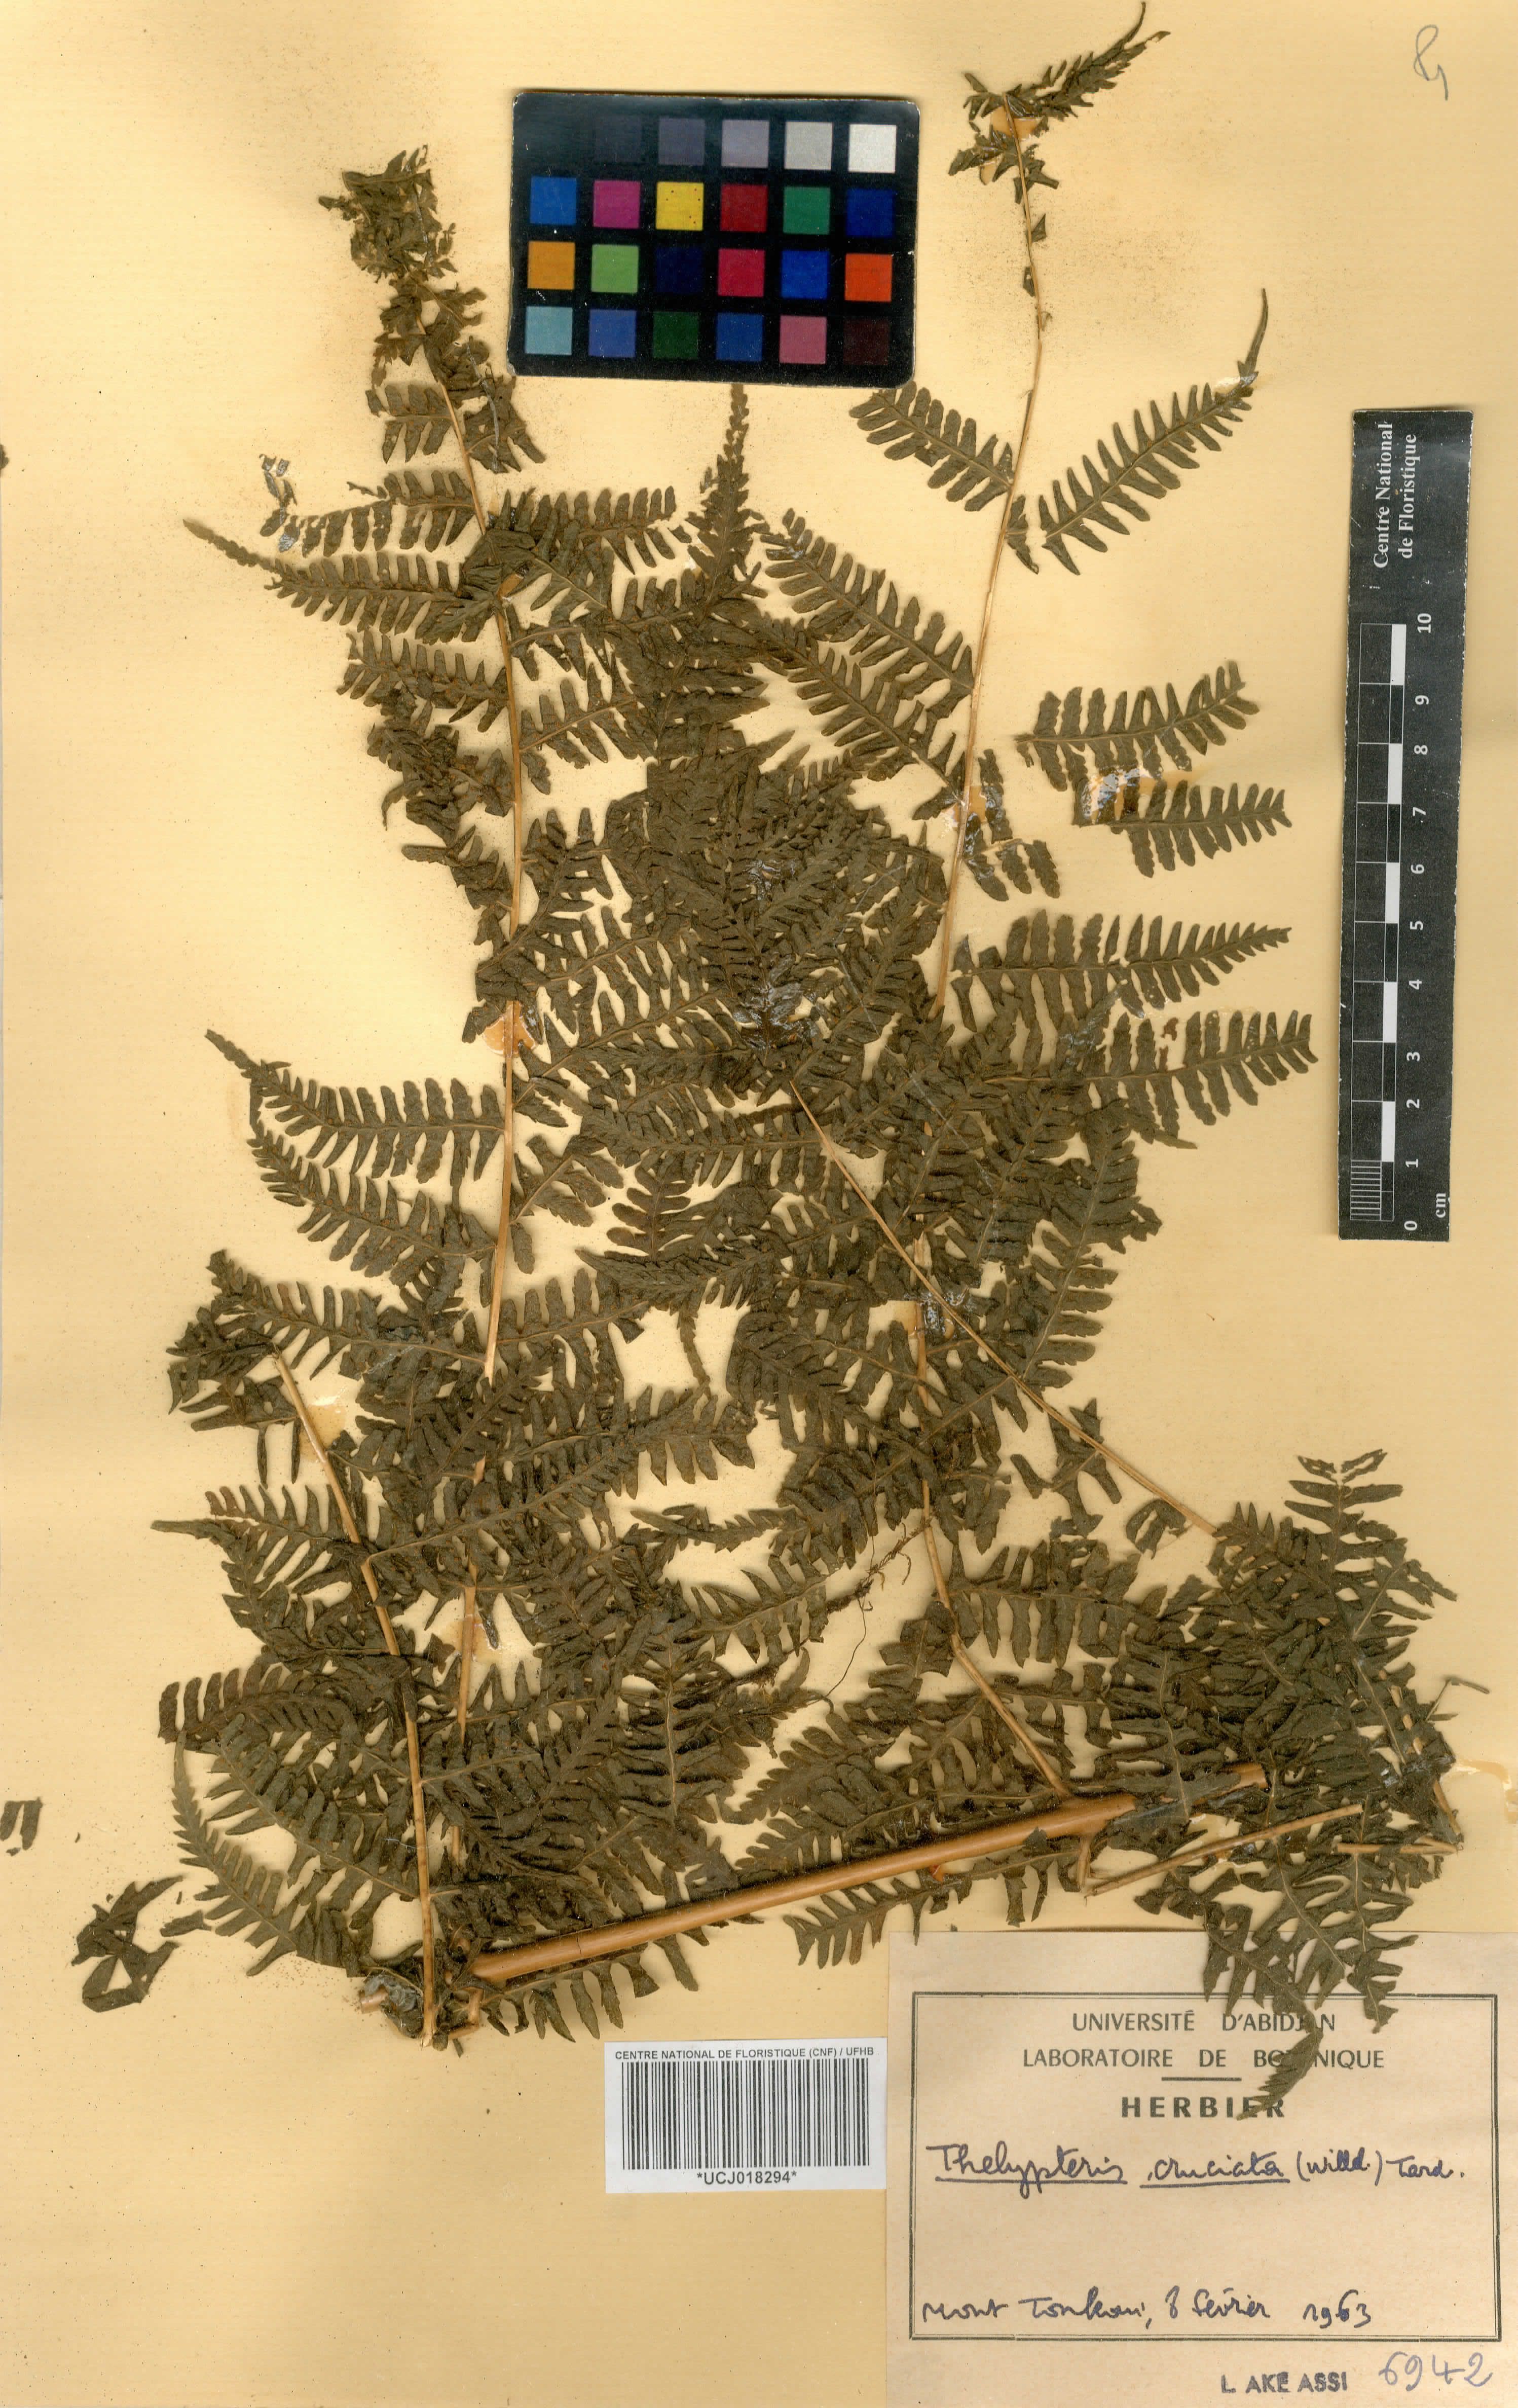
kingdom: Plantae
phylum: Tracheophyta
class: Polypodiopsida
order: Polypodiales
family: Thelypteridaceae
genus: Pseudophegopteris
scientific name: Pseudophegopteris cruciata
